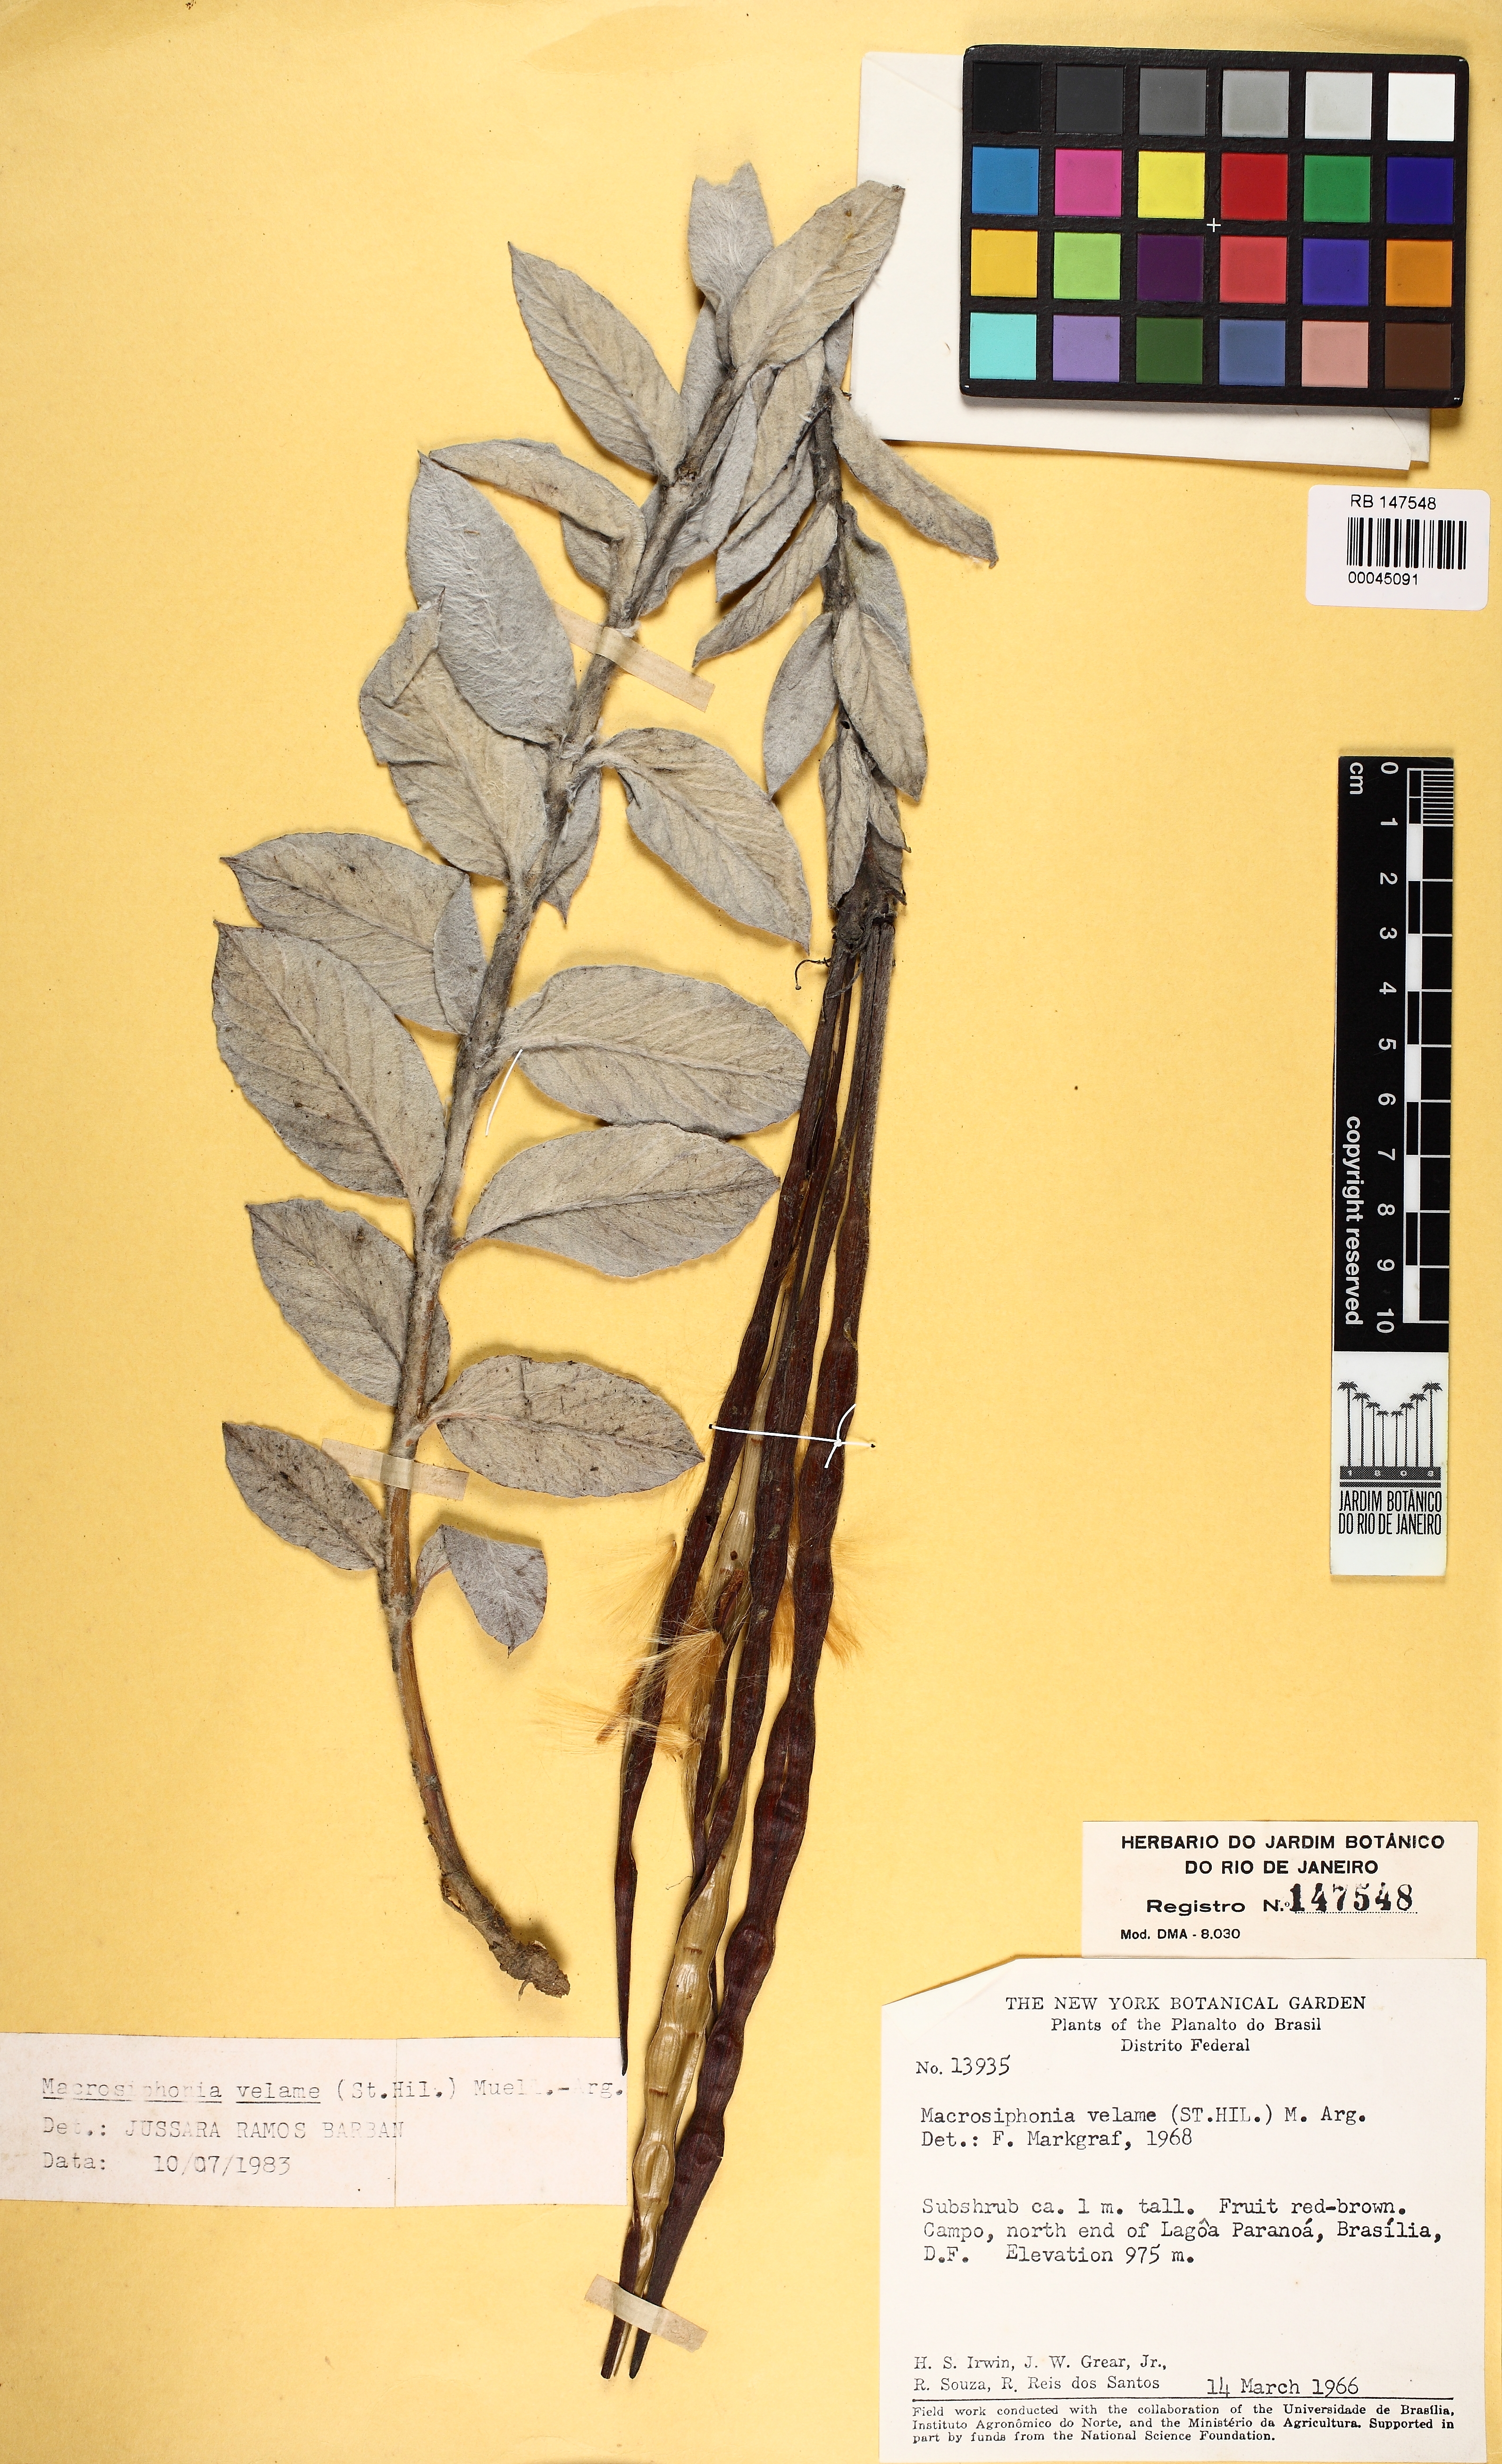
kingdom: Plantae
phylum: Tracheophyta
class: Magnoliopsida
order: Gentianales
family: Apocynaceae
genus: Mandevilla
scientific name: Mandevilla velame
